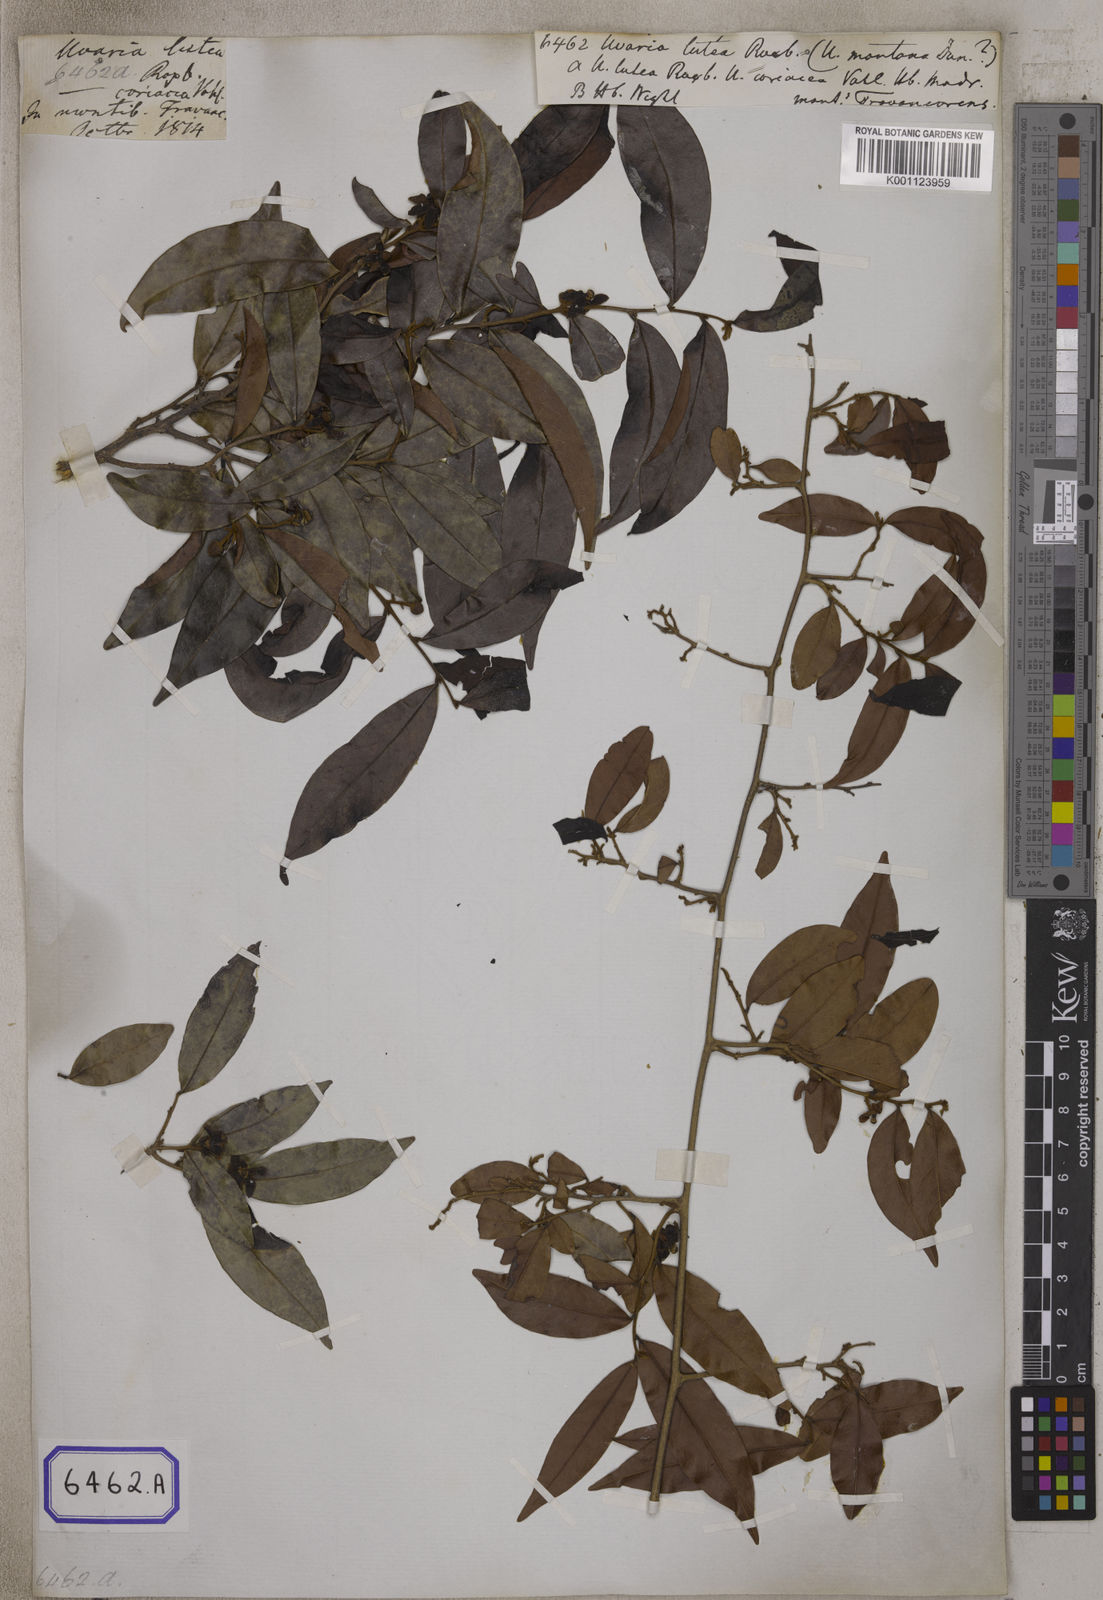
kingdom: Plantae
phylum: Tracheophyta
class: Magnoliopsida
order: Magnoliales
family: Annonaceae
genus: Uvaria
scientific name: Uvaria
